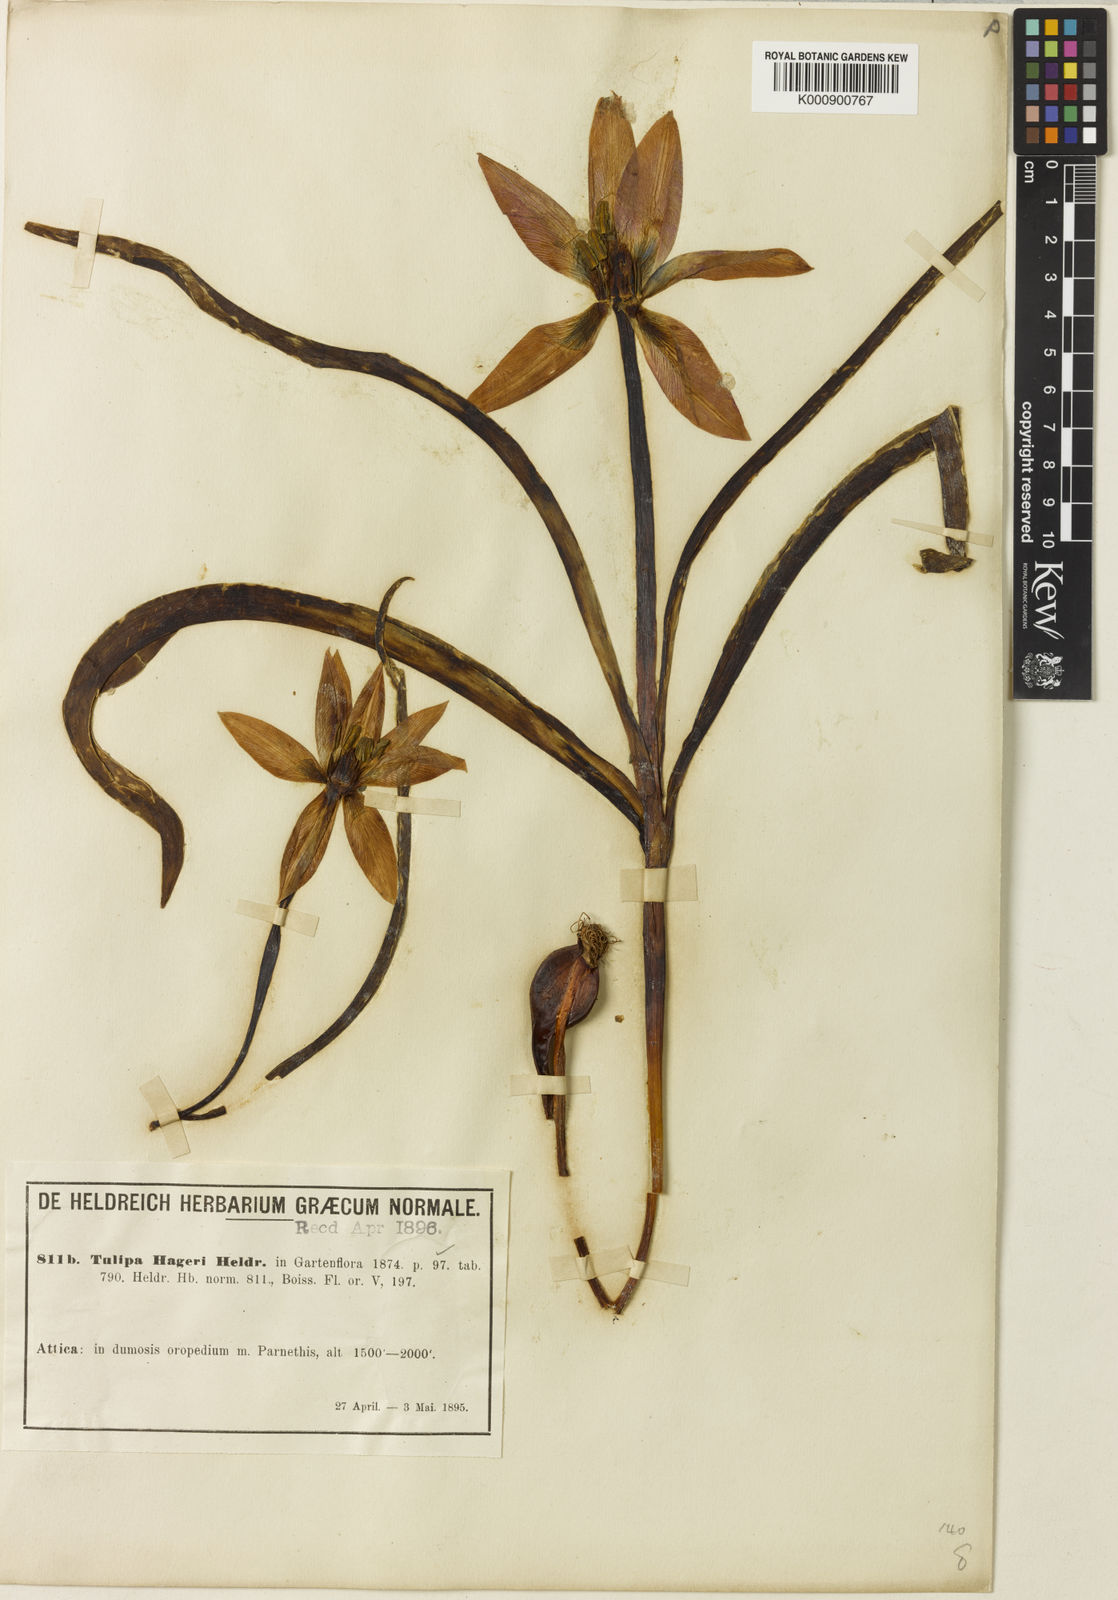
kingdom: Plantae
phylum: Tracheophyta
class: Liliopsida
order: Liliales
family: Liliaceae
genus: Tulipa
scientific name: Tulipa orphanidea
